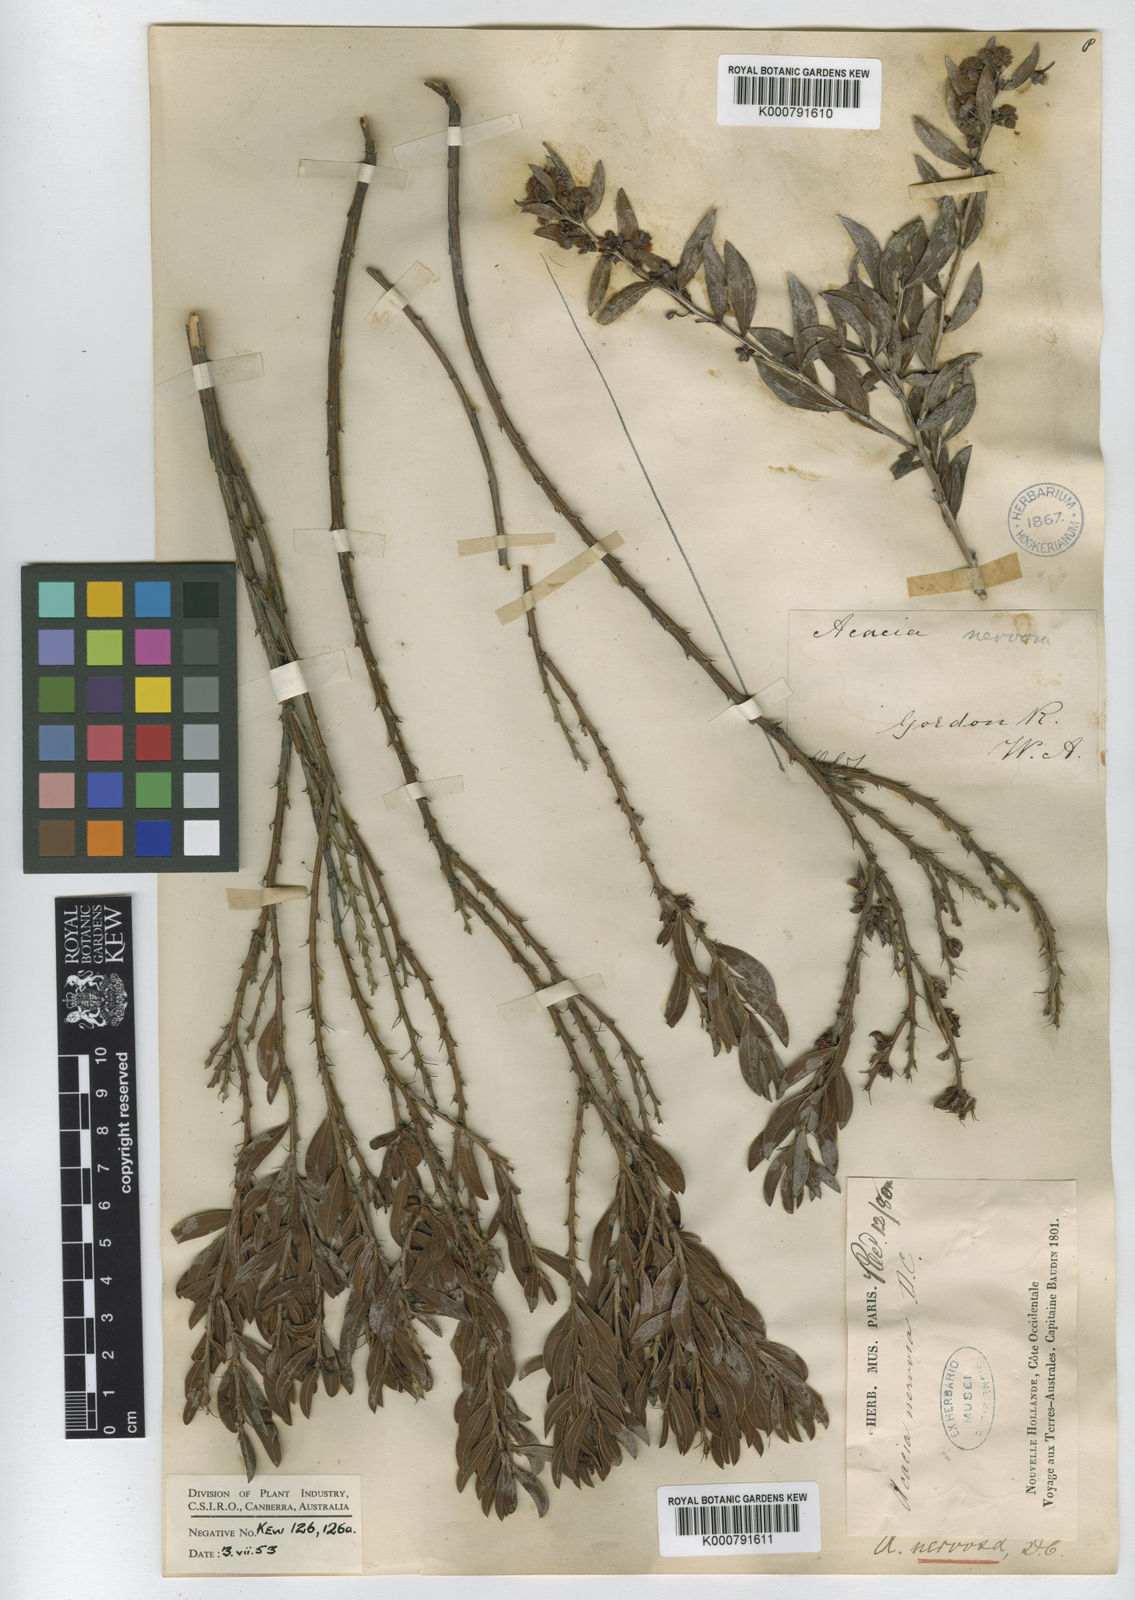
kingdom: Plantae
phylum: Tracheophyta
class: Magnoliopsida
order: Fabales
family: Fabaceae
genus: Acacia
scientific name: Acacia nervosa
